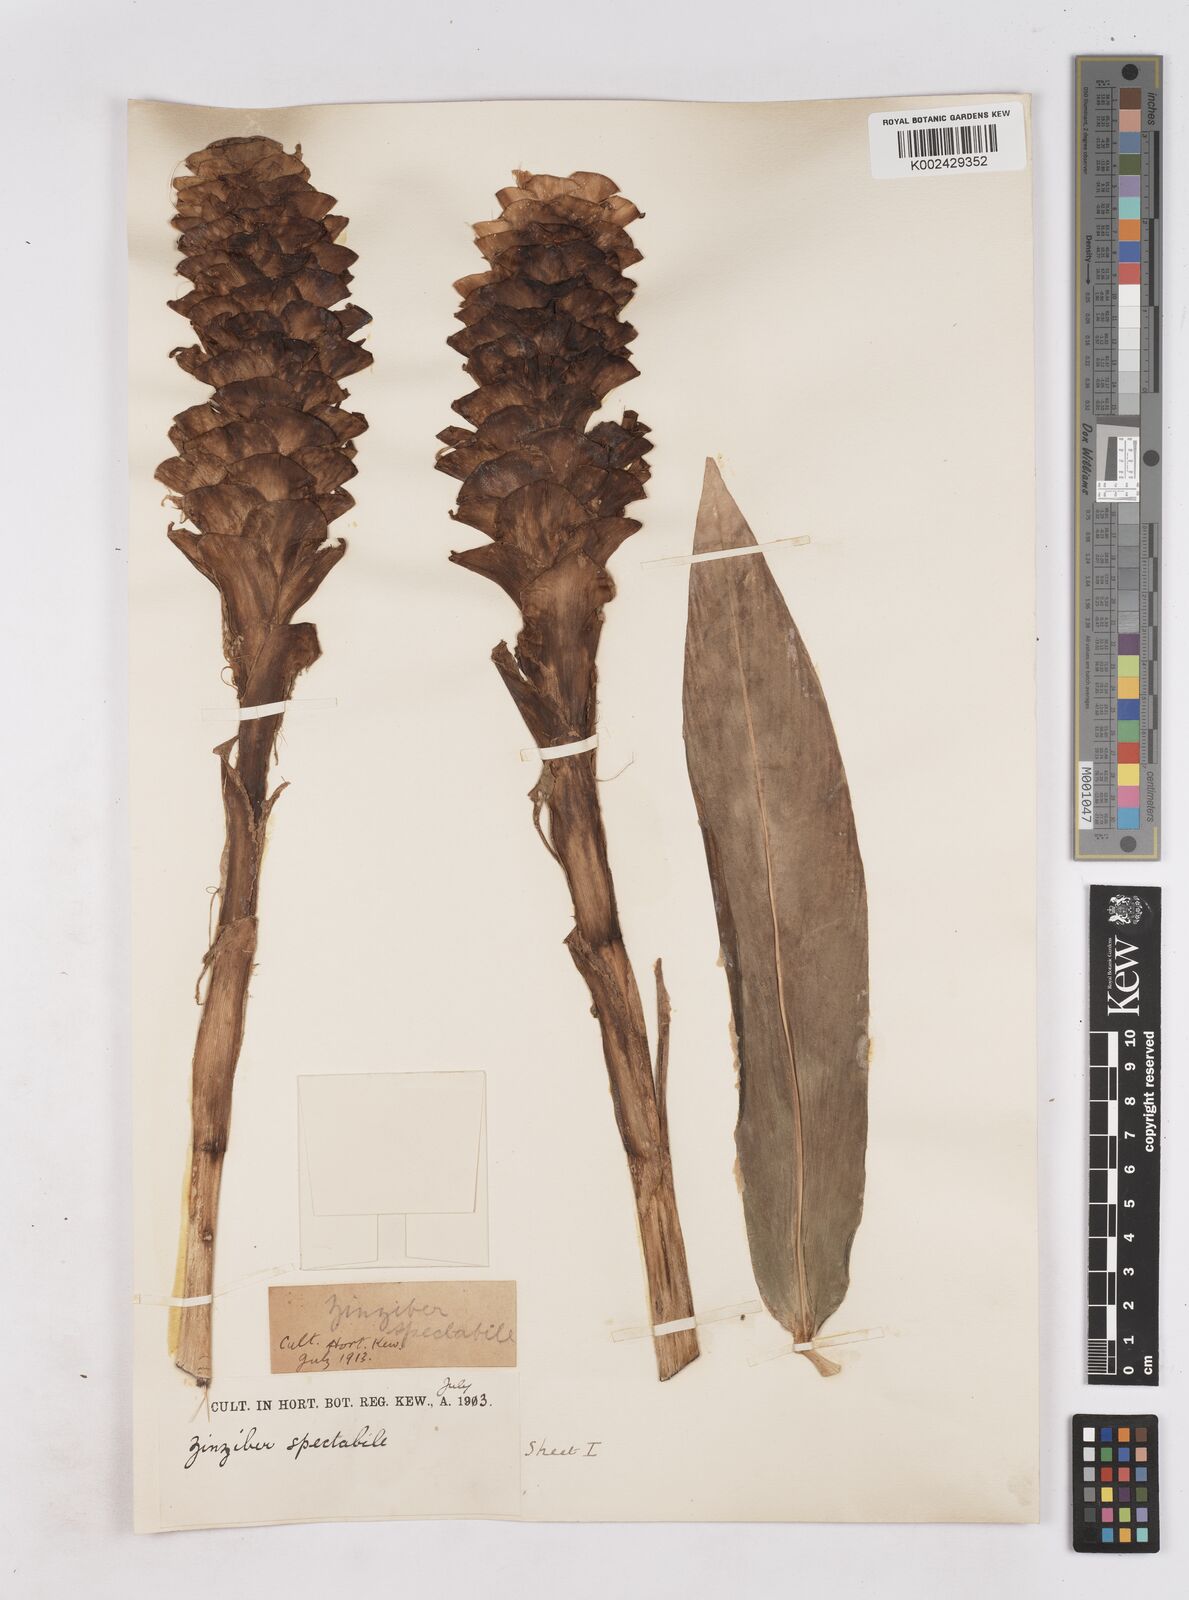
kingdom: Plantae
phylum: Tracheophyta
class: Liliopsida
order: Zingiberales
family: Zingiberaceae
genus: Zingiber
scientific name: Zingiber spectabile
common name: Beehive ginger
